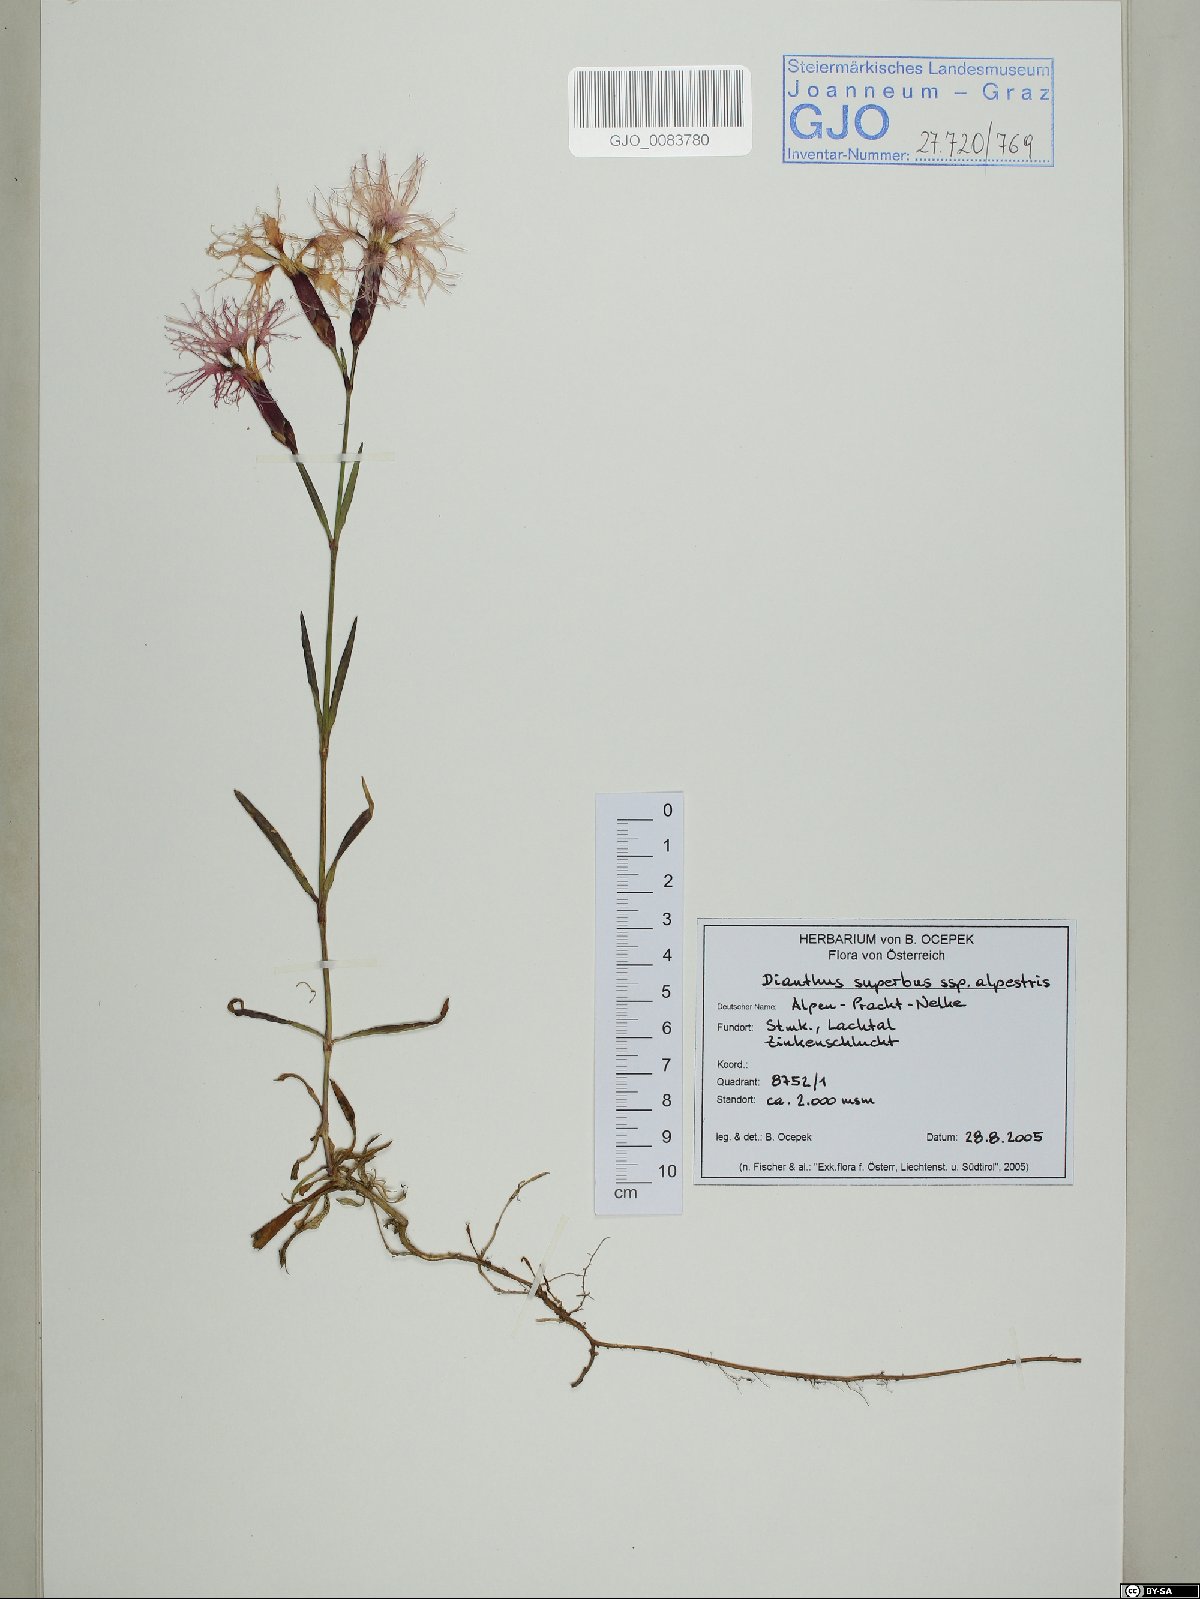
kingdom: Plantae
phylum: Tracheophyta
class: Magnoliopsida
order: Caryophyllales
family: Caryophyllaceae
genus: Dianthus
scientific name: Dianthus superbus
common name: Fringed pink
